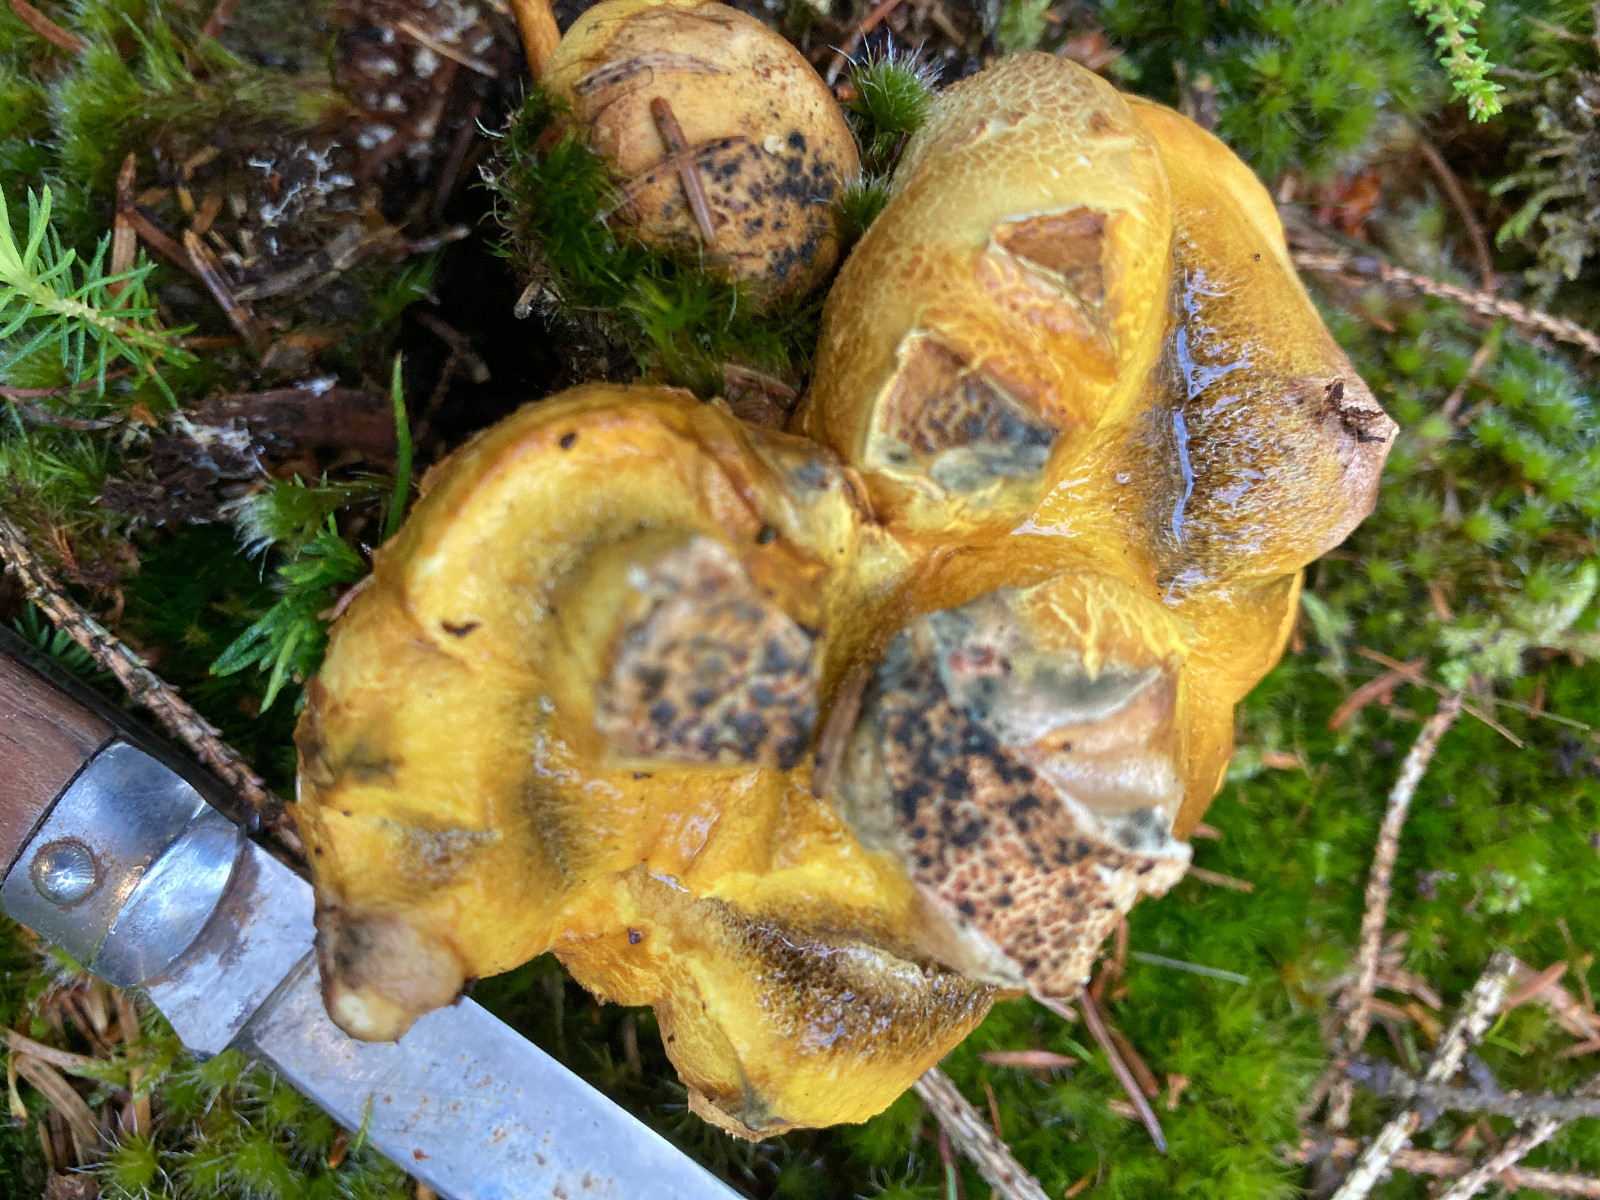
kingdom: Fungi
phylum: Basidiomycota
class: Agaricomycetes
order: Boletales
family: Sclerodermataceae
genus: Scleroderma
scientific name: Scleroderma citrinum
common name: almindelig bruskbold
